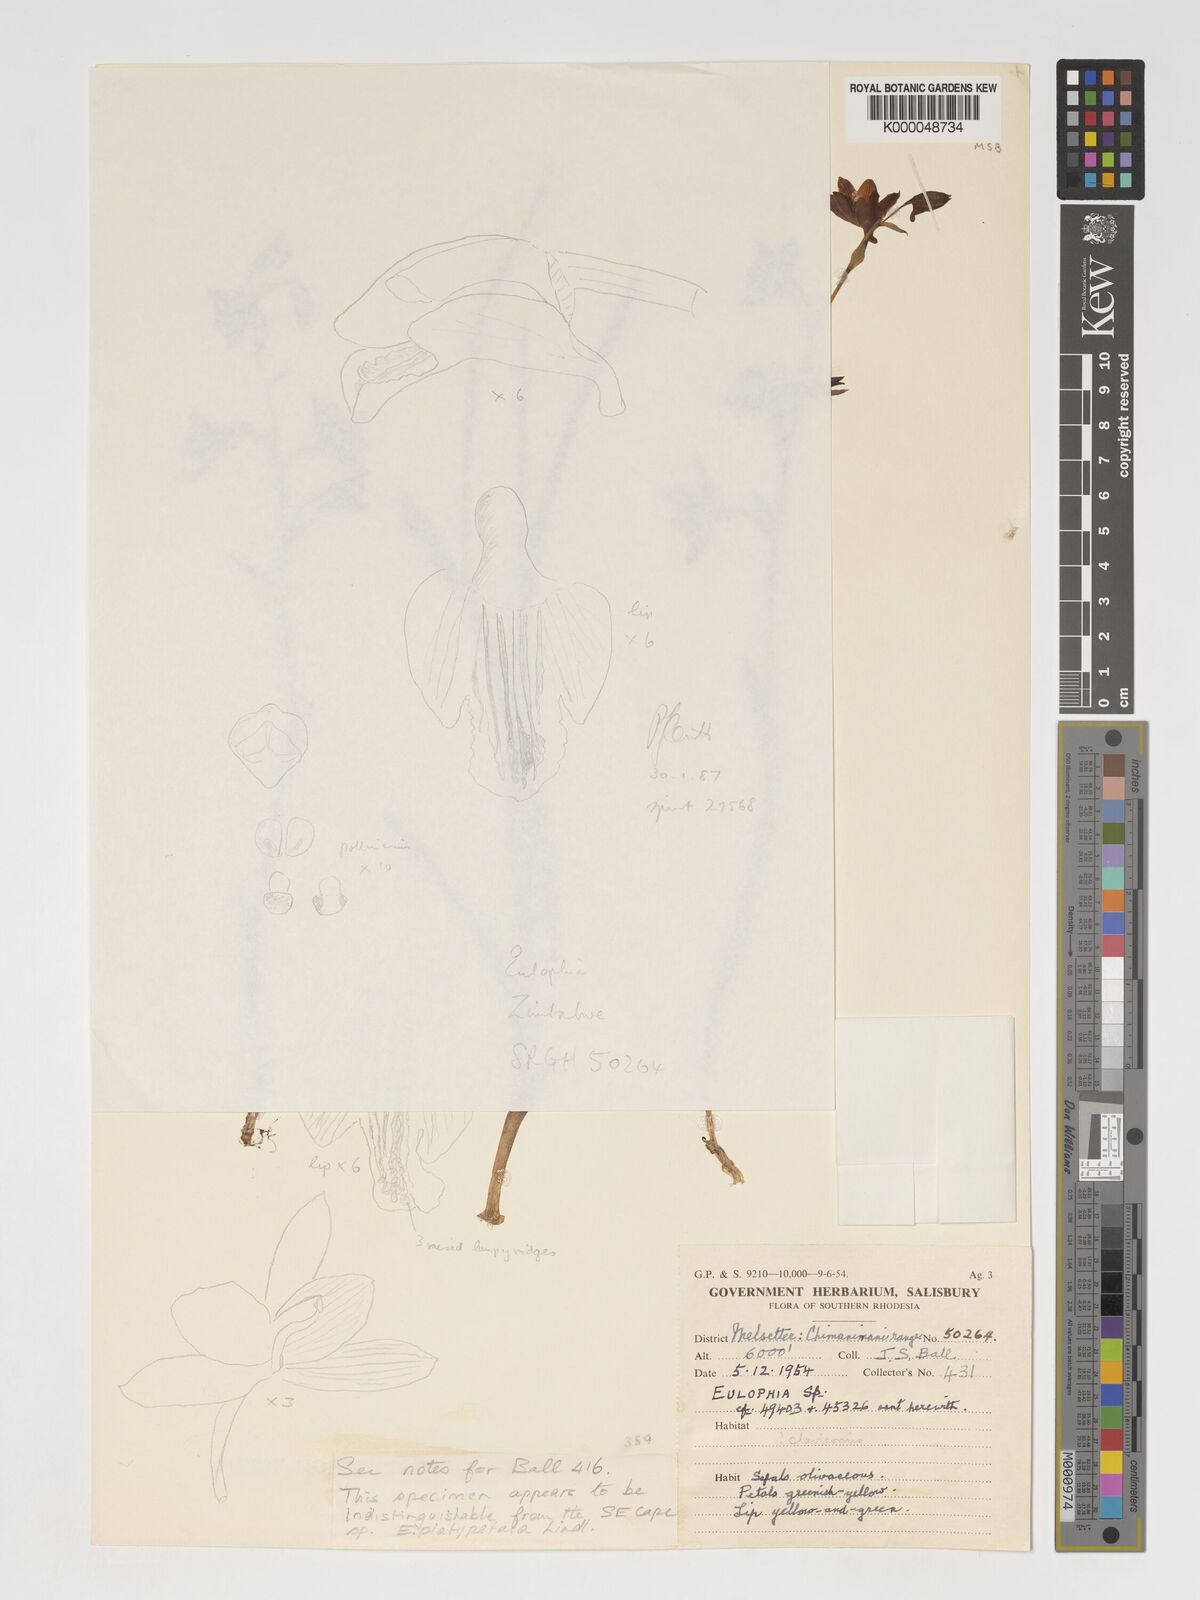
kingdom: Plantae
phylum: Tracheophyta
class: Liliopsida
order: Asparagales
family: Orchidaceae
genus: Eulophia
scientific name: Eulophia monticola
